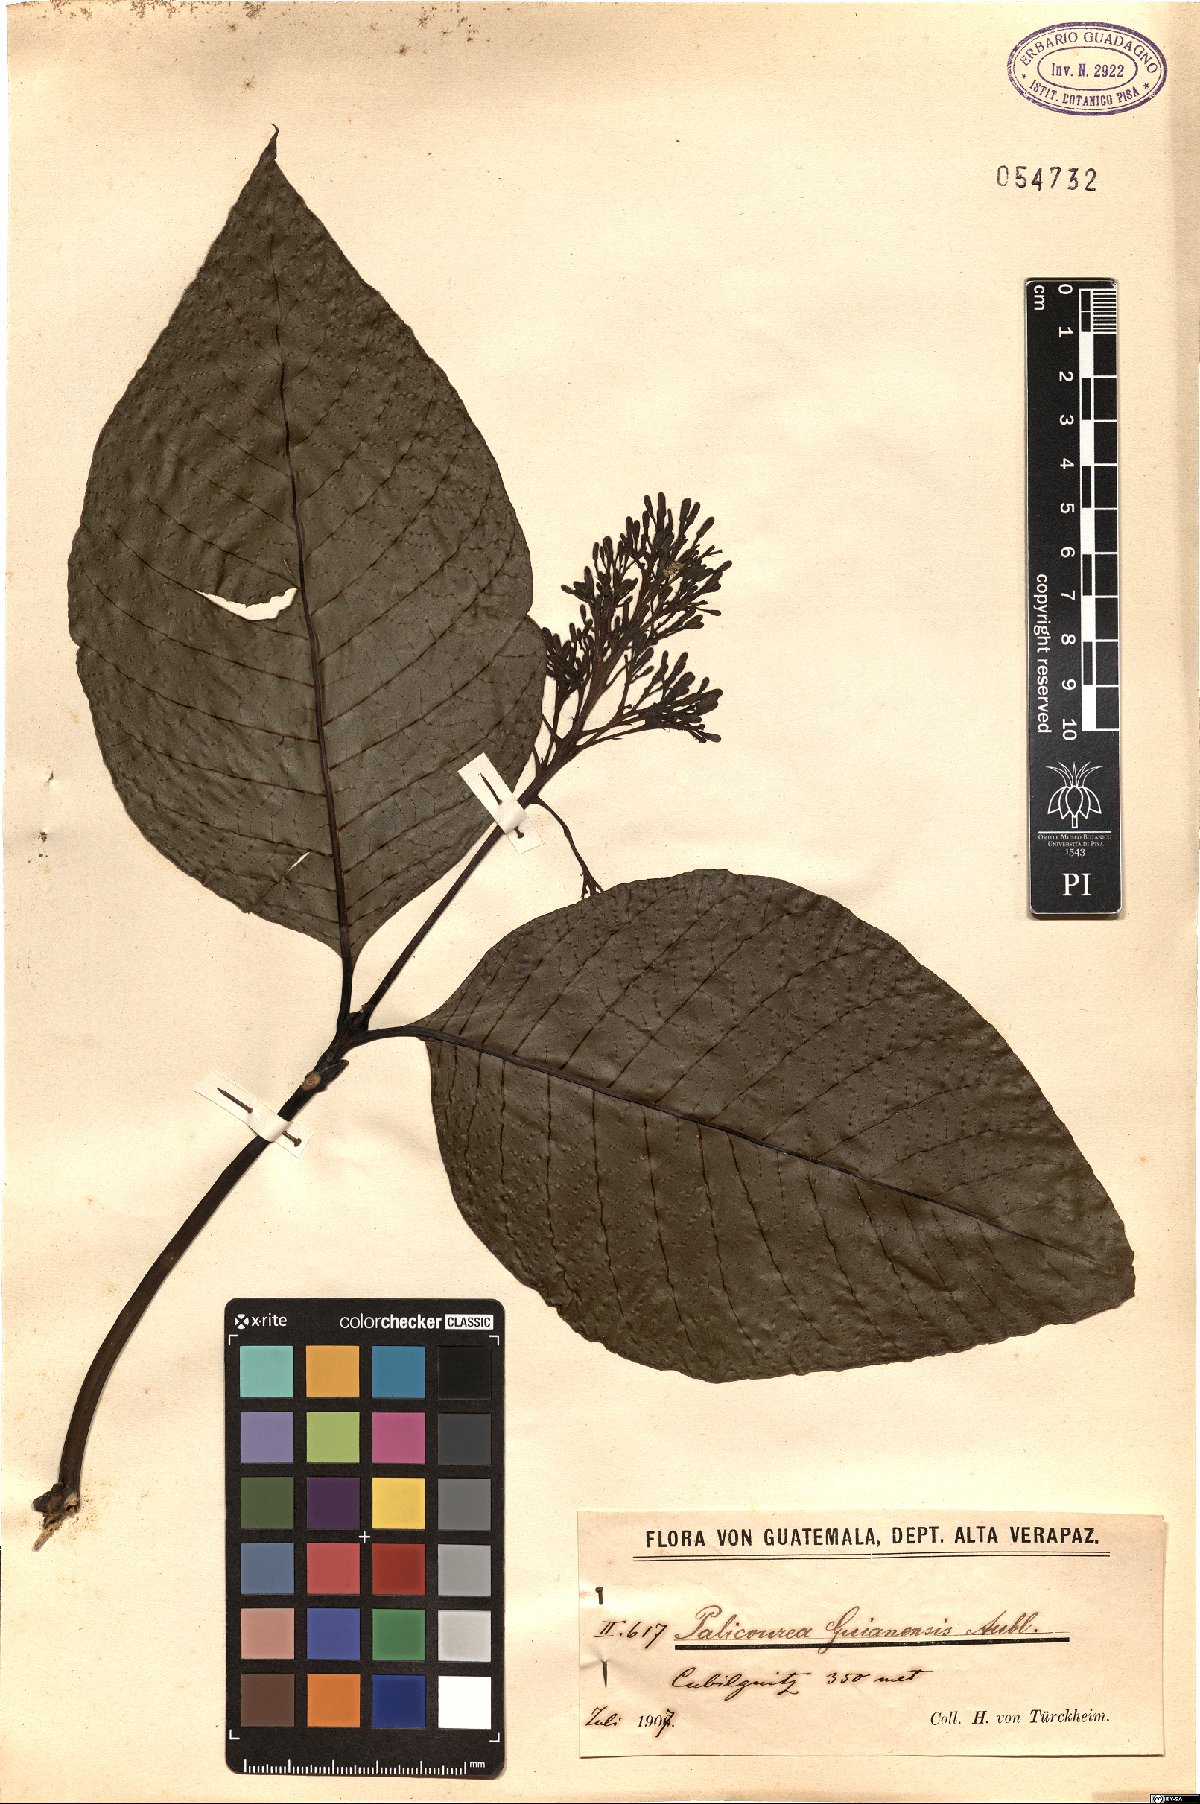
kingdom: Plantae
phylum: Tracheophyta
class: Magnoliopsida
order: Gentianales
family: Rubiaceae
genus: Palicourea
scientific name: Palicourea guianensis
